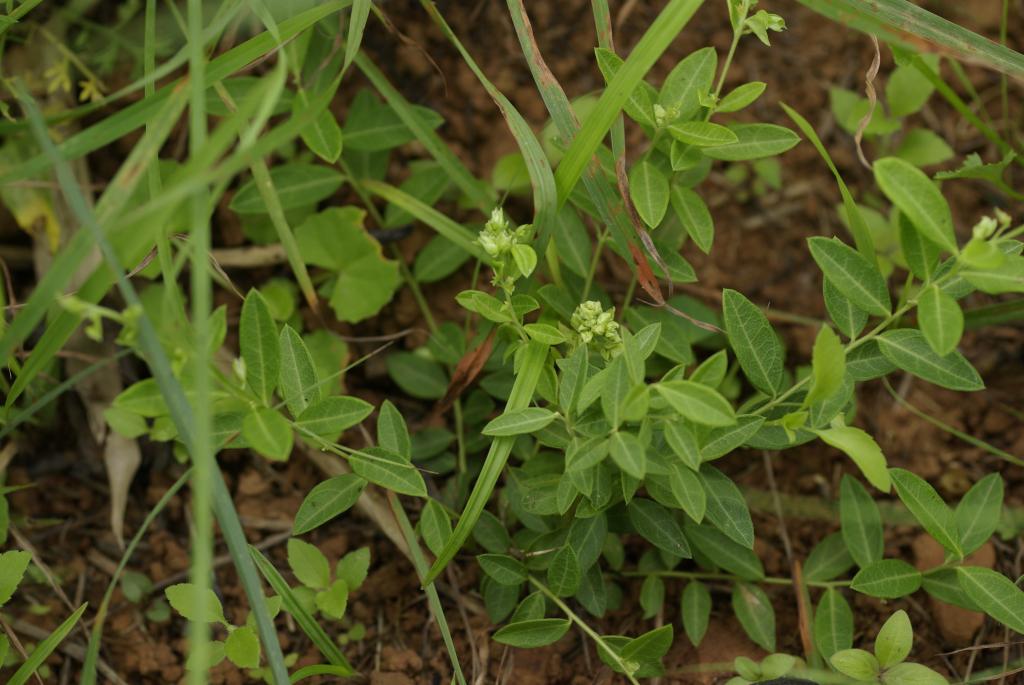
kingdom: Plantae
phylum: Tracheophyta
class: Magnoliopsida
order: Fabales
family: Polygalaceae
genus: Polygala
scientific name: Polygala japonica
